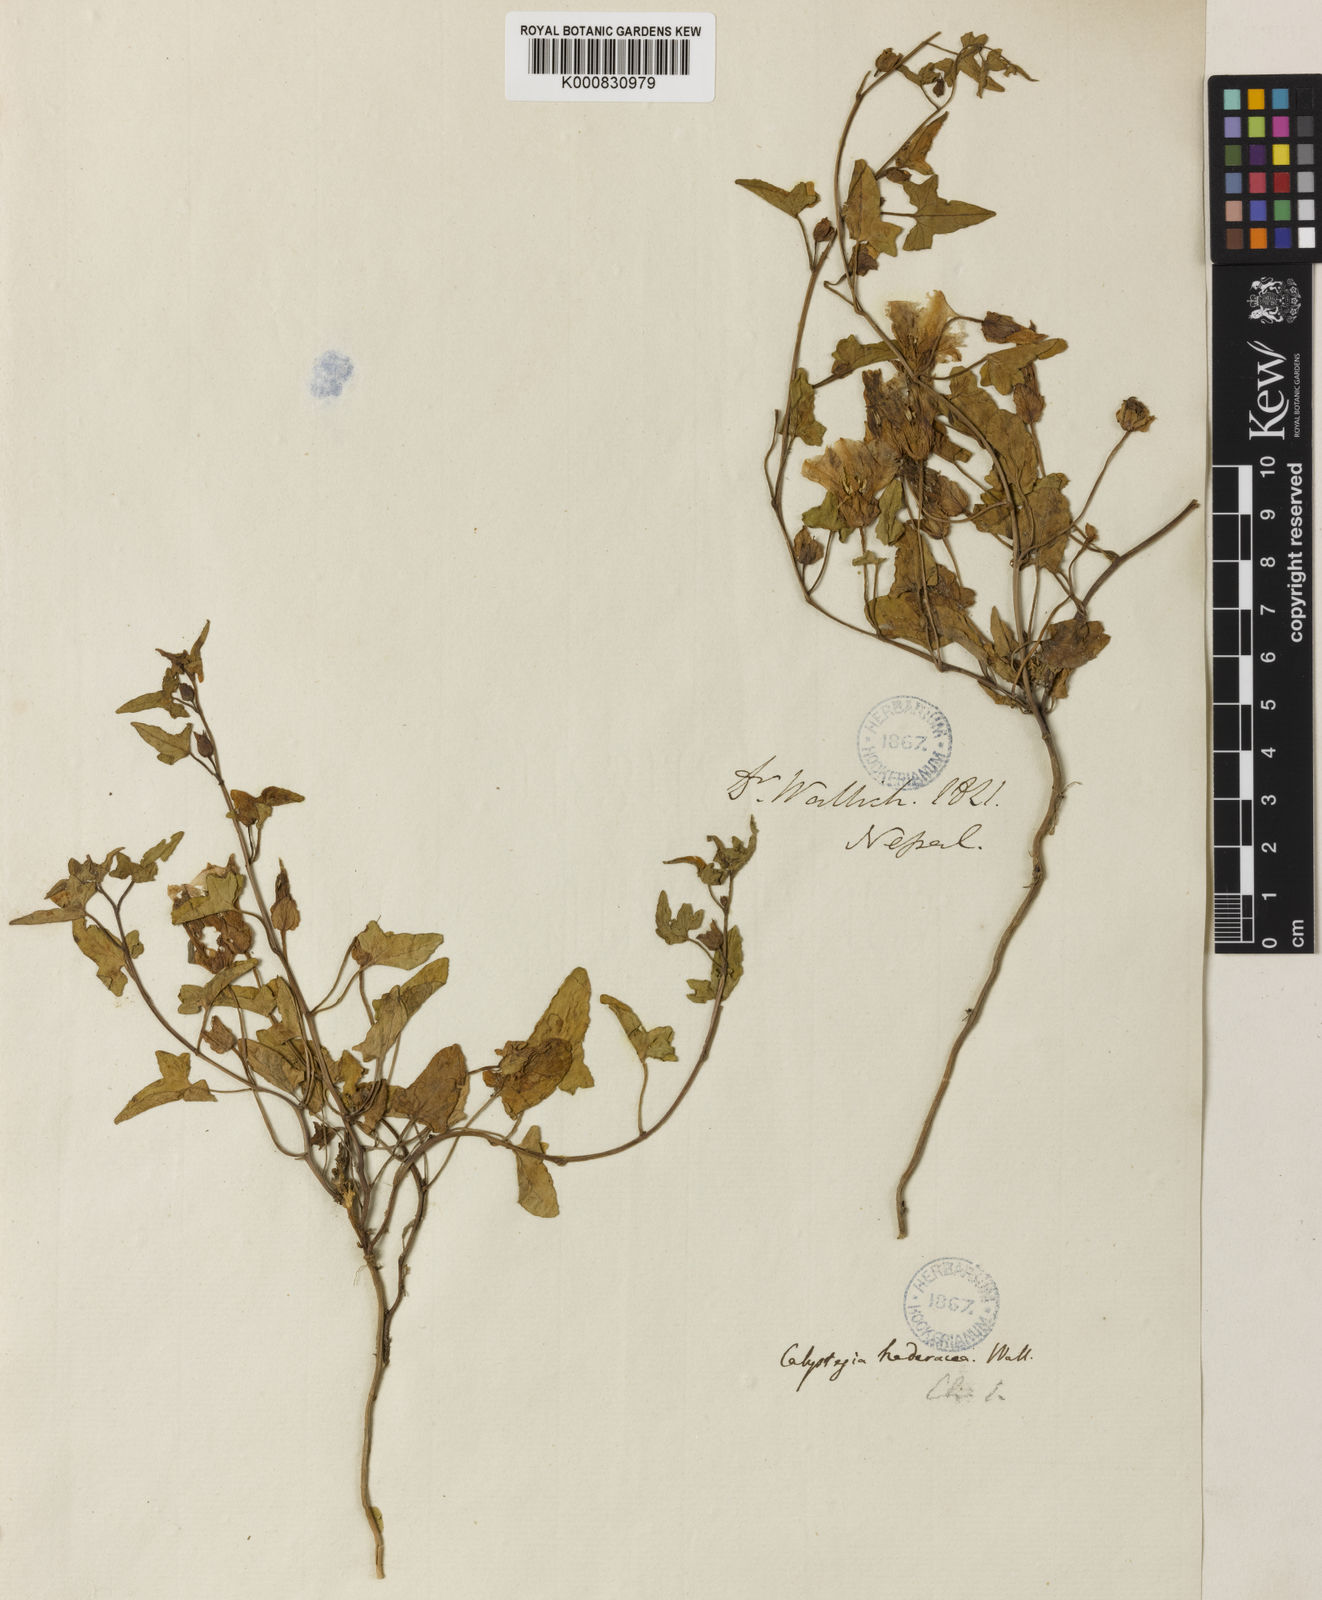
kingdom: Plantae
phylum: Tracheophyta
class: Magnoliopsida
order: Solanales
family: Convolvulaceae
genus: Calystegia
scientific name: Calystegia hederacea
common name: Japanese false bindweed
